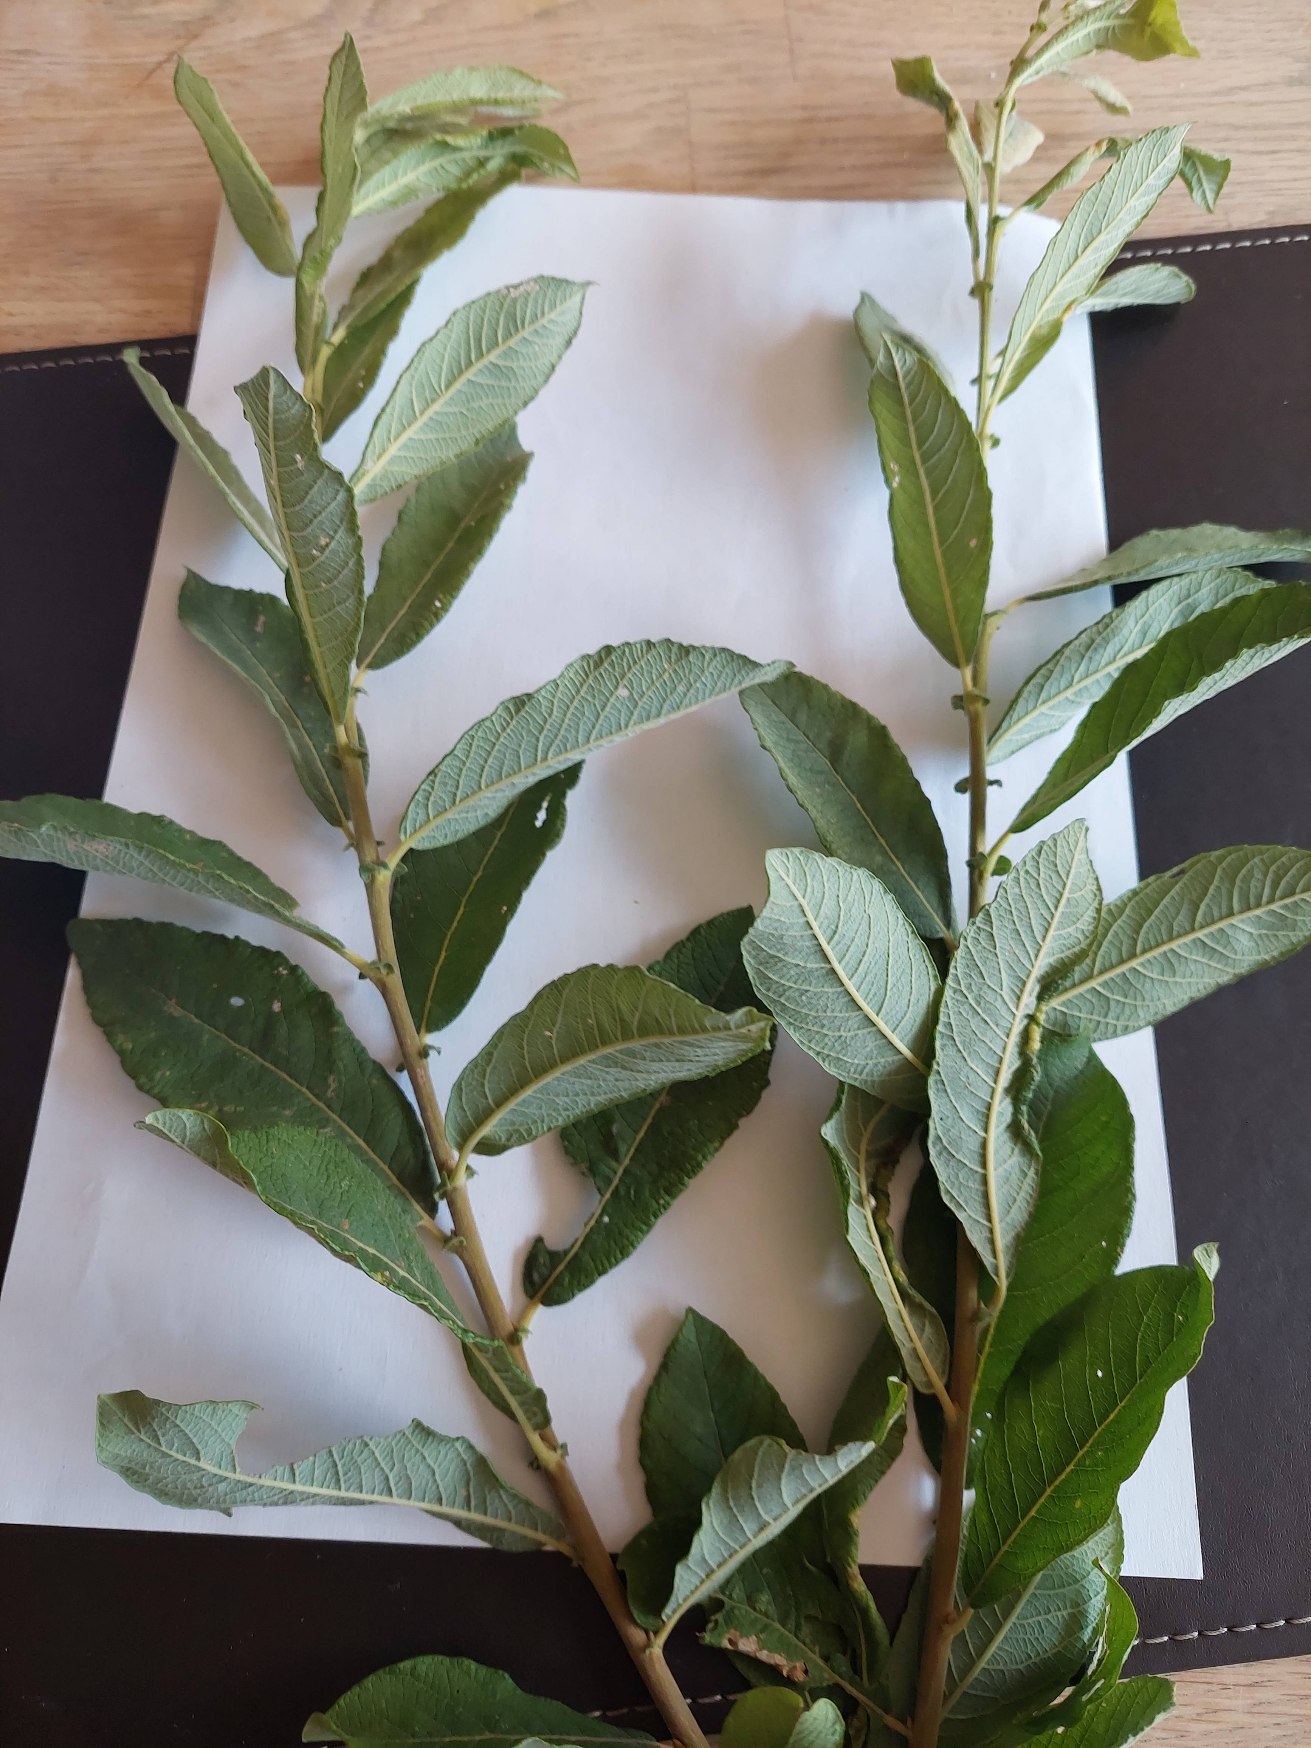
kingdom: Plantae
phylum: Tracheophyta
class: Magnoliopsida
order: Malpighiales
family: Salicaceae
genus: Salix
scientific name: Salix cinerea
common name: Grå-pil
